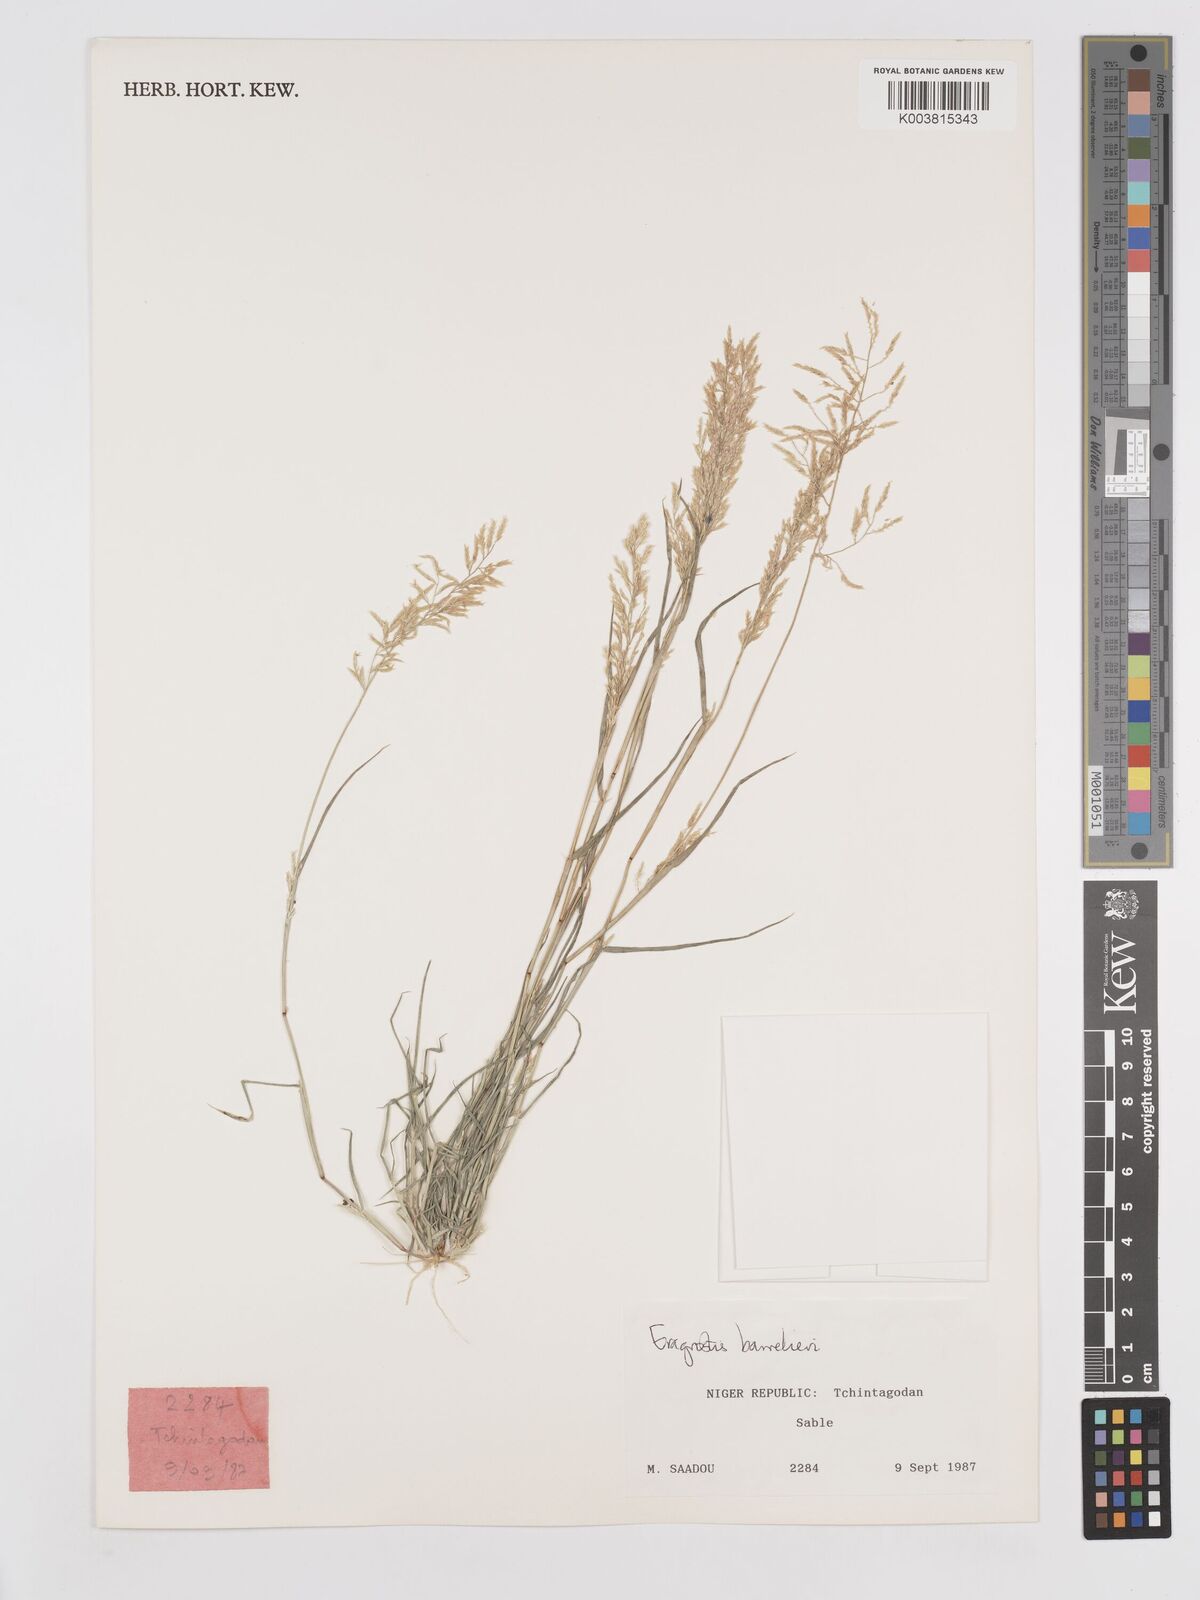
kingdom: Plantae
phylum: Tracheophyta
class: Liliopsida
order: Poales
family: Poaceae
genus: Eragrostis
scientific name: Eragrostis barrelieri
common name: Mediterranean lovegrass
